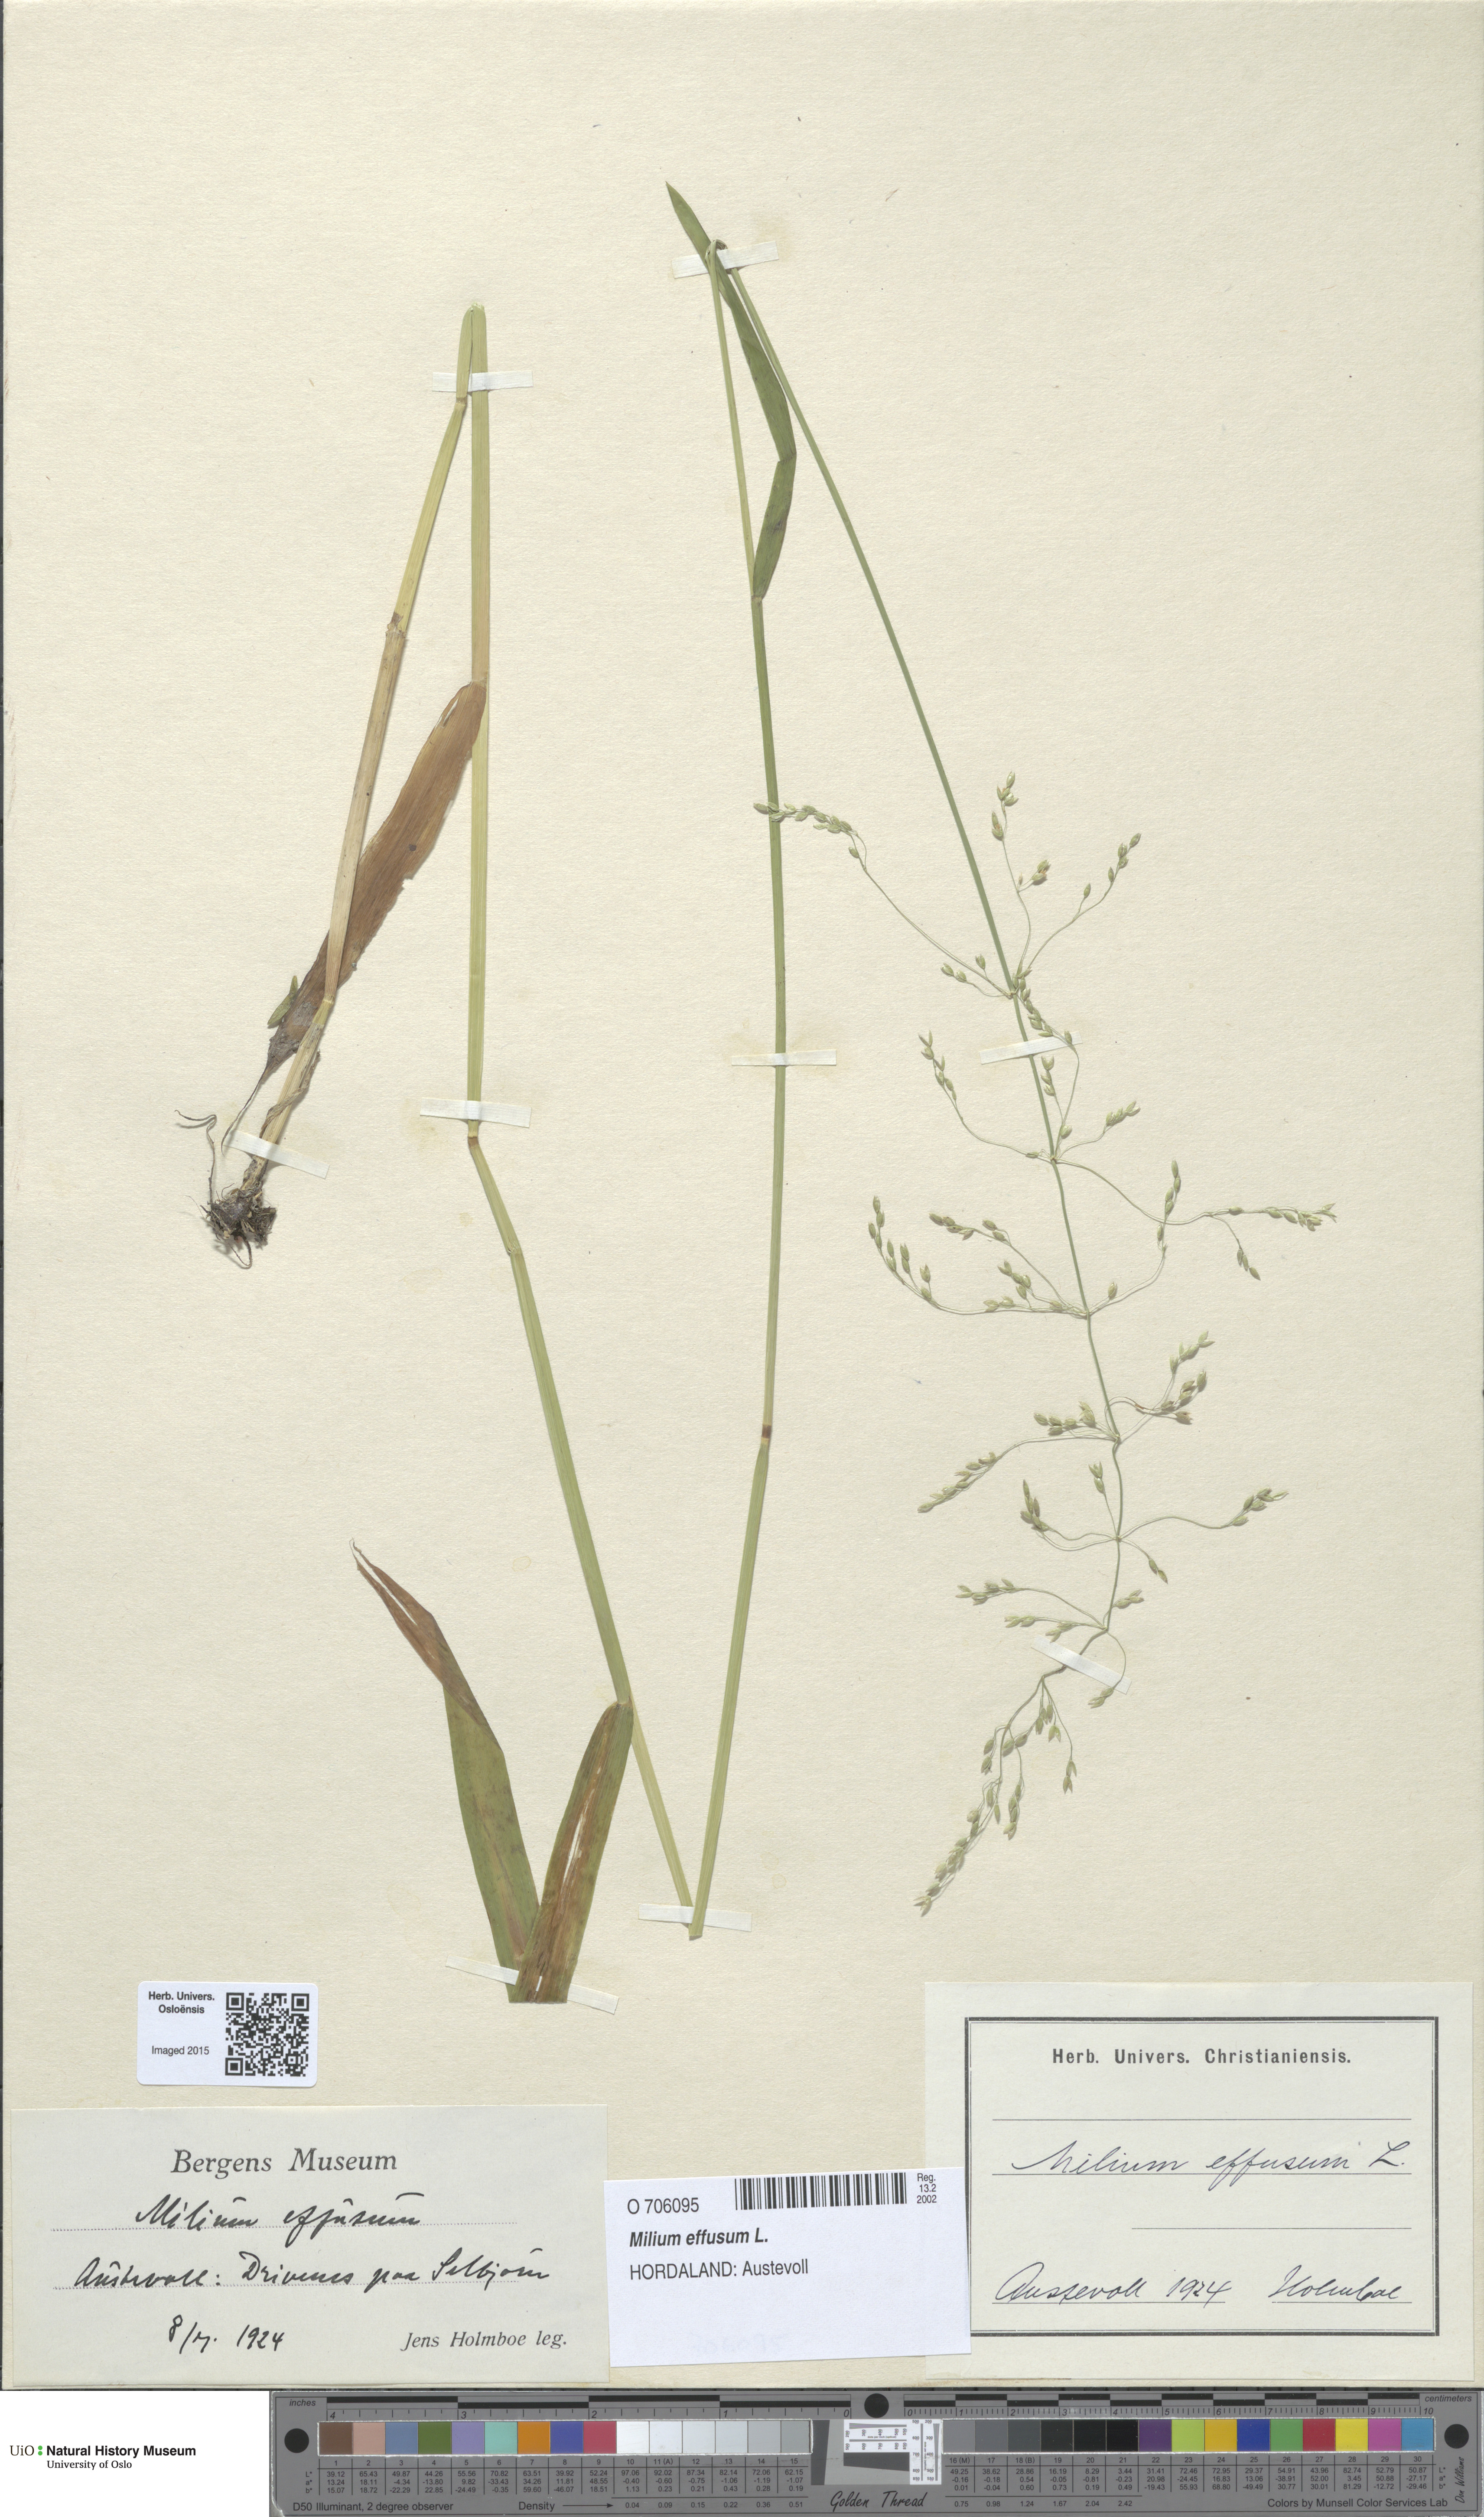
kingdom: Plantae
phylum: Tracheophyta
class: Liliopsida
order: Poales
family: Poaceae
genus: Milium
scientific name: Milium effusum
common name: Wood millet
